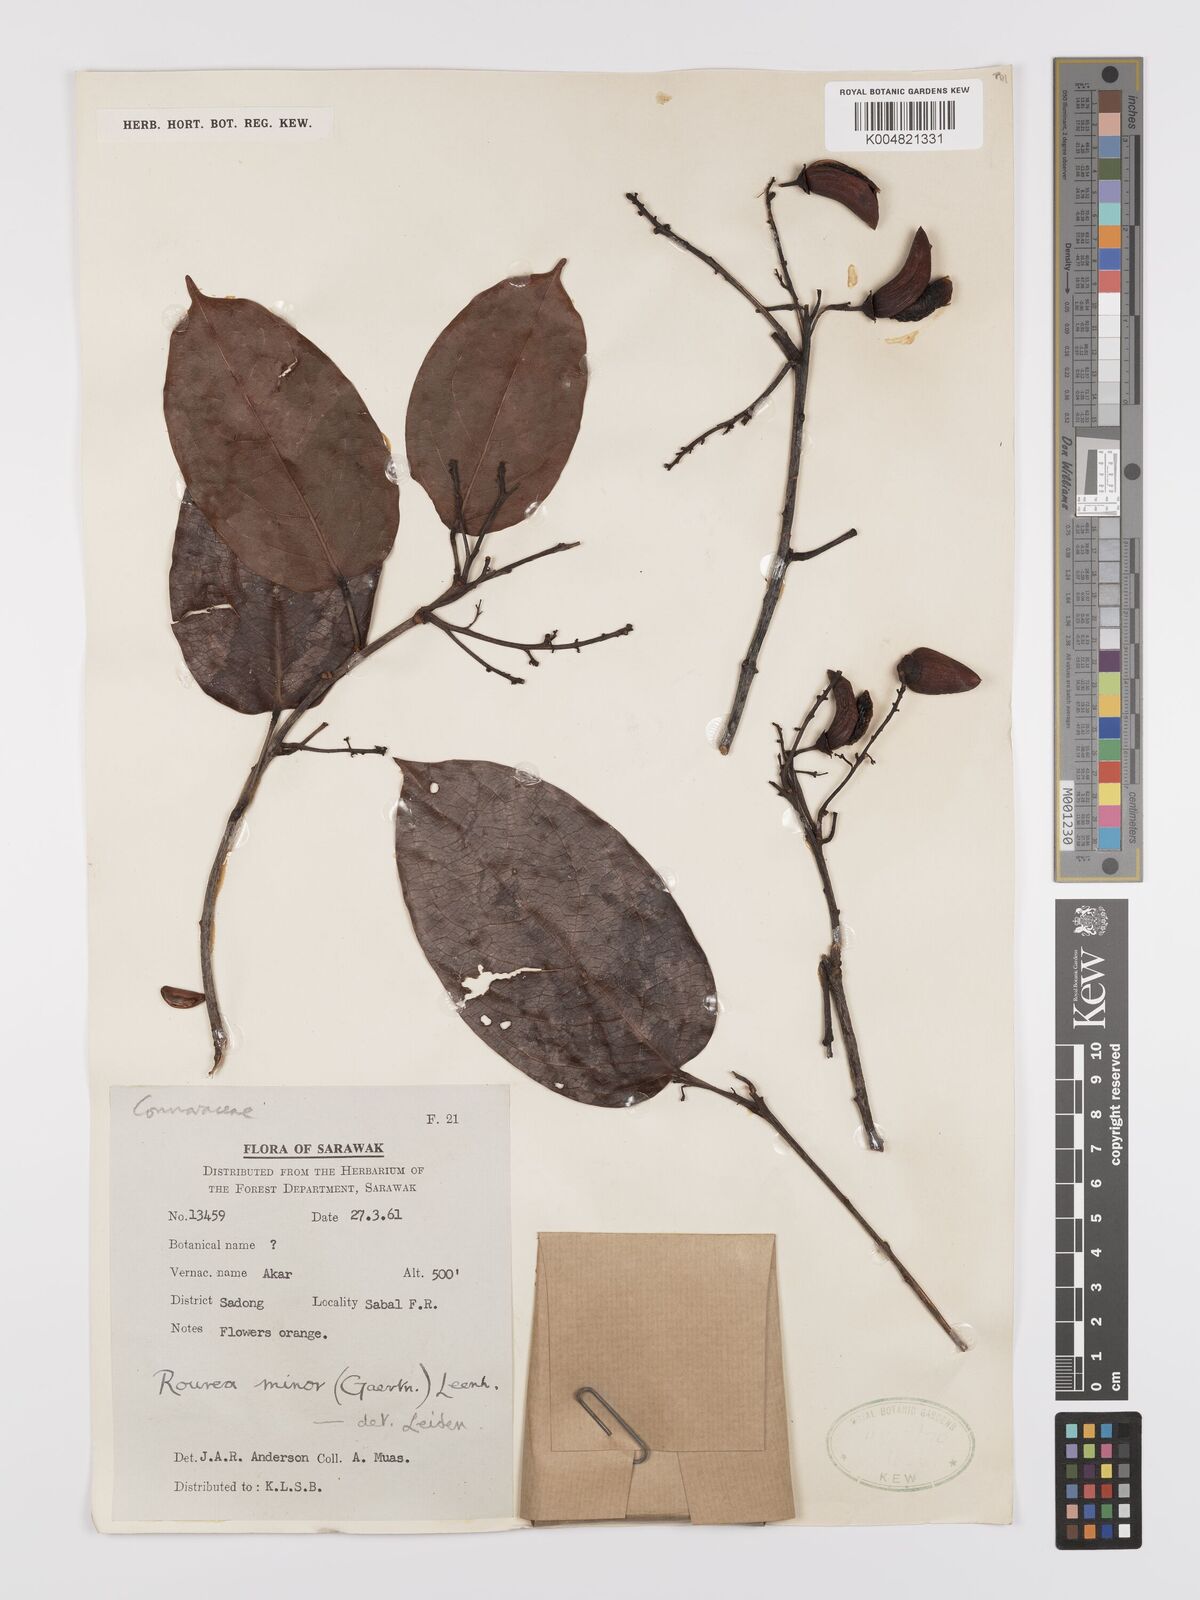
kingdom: Plantae
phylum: Tracheophyta
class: Magnoliopsida
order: Oxalidales
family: Connaraceae
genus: Rourea
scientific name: Rourea minor
